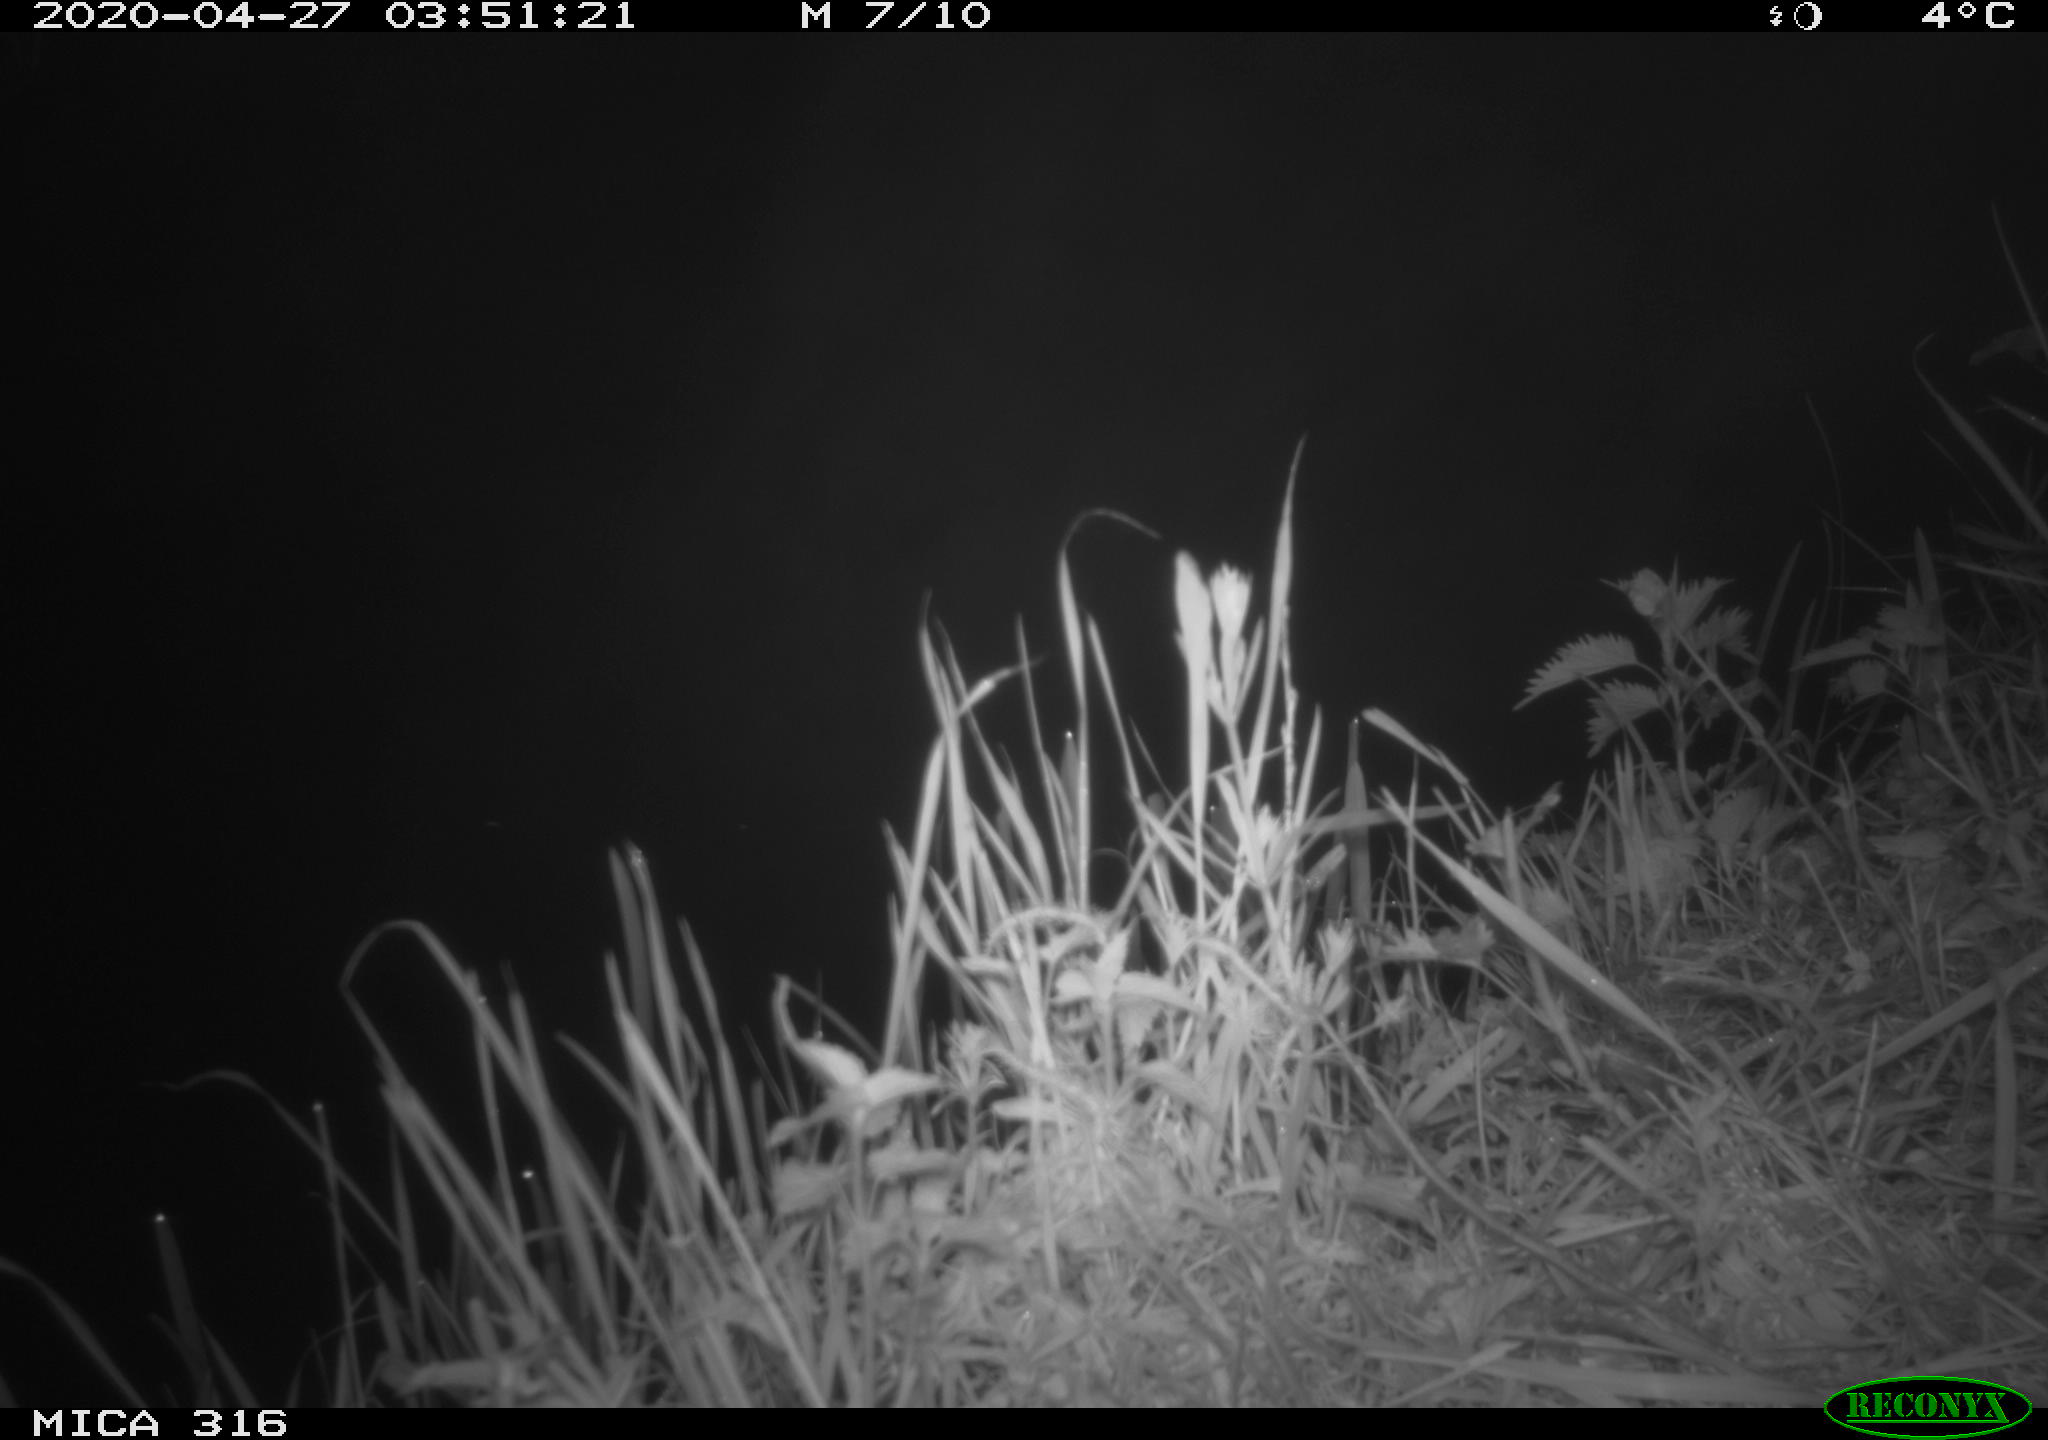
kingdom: Animalia
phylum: Chordata
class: Aves
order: Anseriformes
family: Anatidae
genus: Anas
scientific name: Anas platyrhynchos
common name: Mallard
